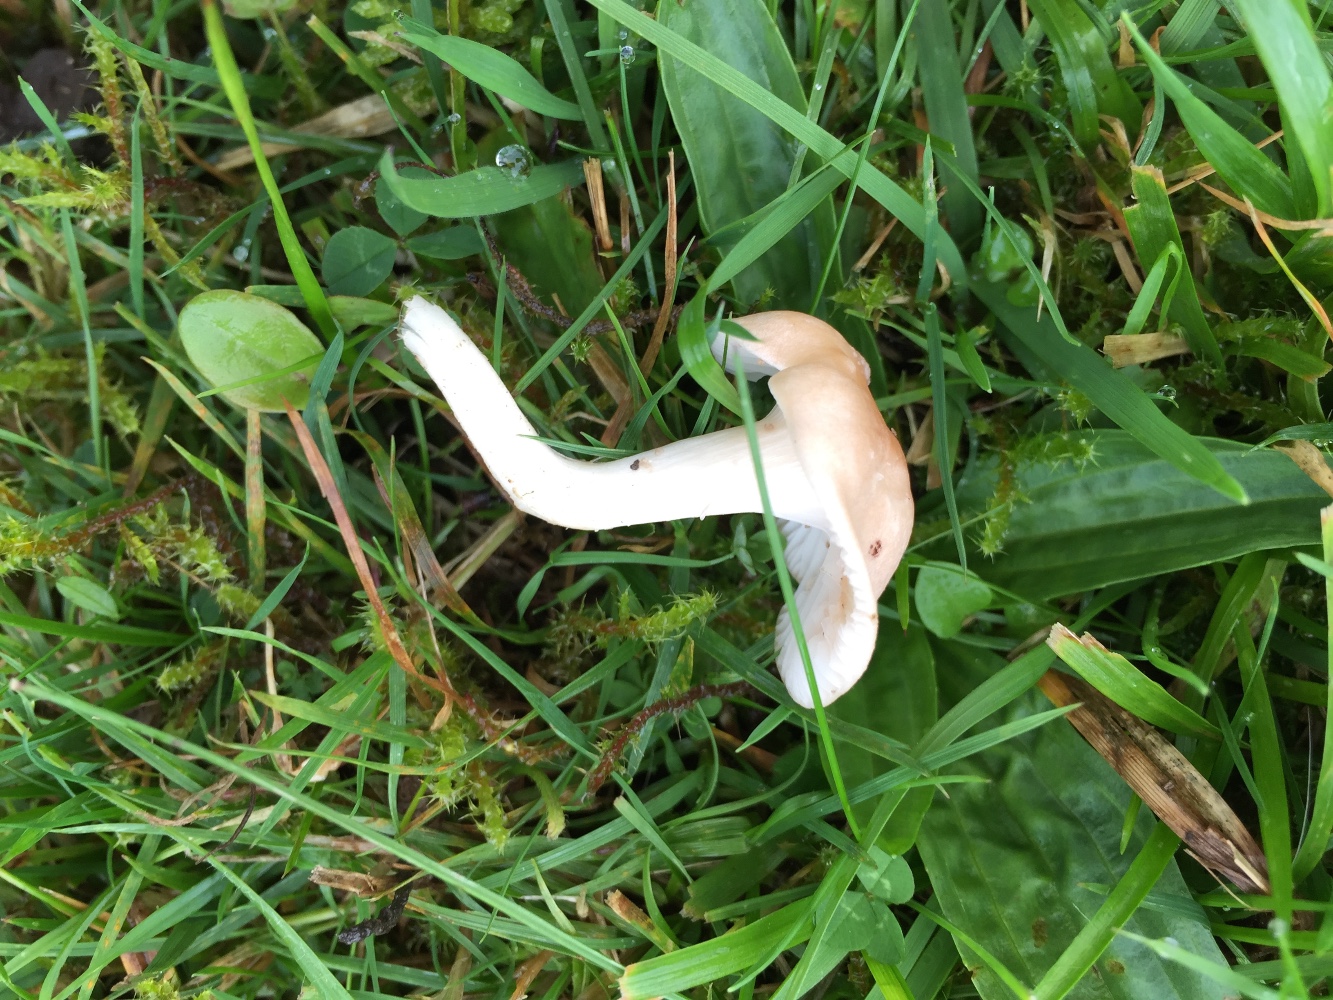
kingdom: Fungi
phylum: Basidiomycota
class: Agaricomycetes
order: Agaricales
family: Hygrophoraceae
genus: Cuphophyllus
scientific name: Cuphophyllus
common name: vokshat
